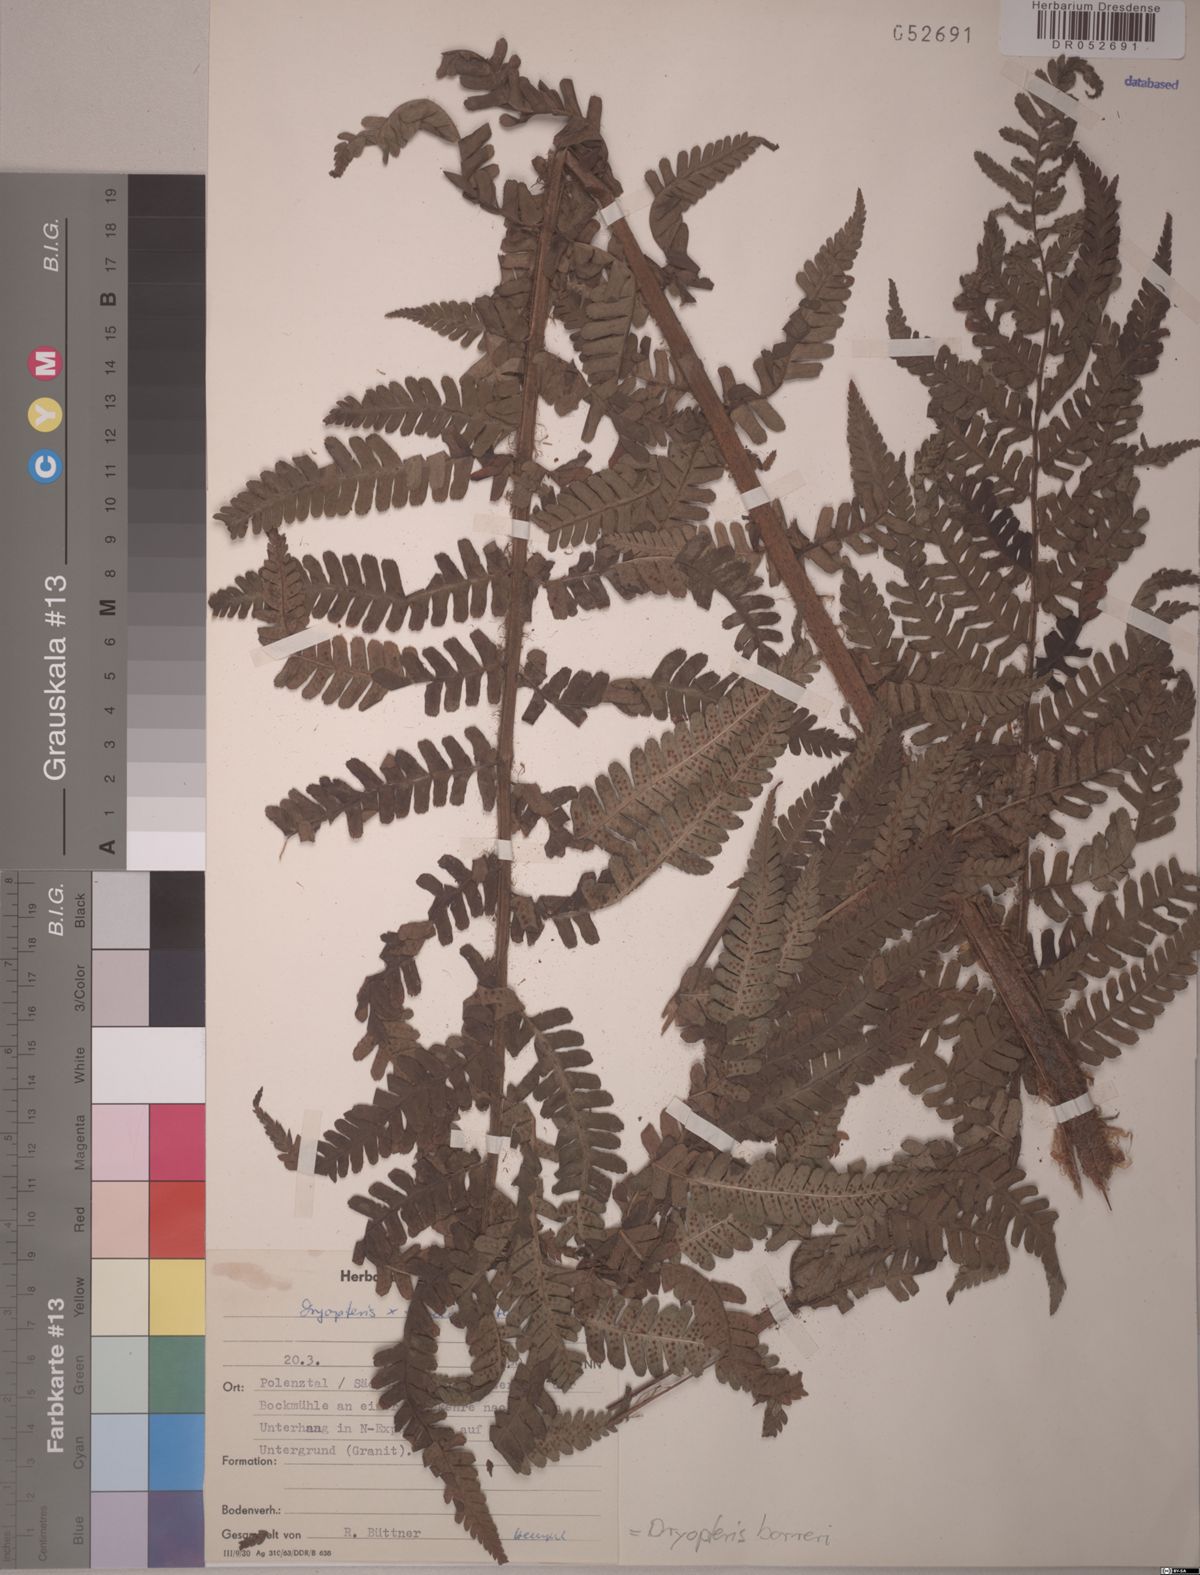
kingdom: Plantae
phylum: Tracheophyta
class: Polypodiopsida
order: Polypodiales
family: Dryopteridaceae
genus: Dryopteris
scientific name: Dryopteris borreri
